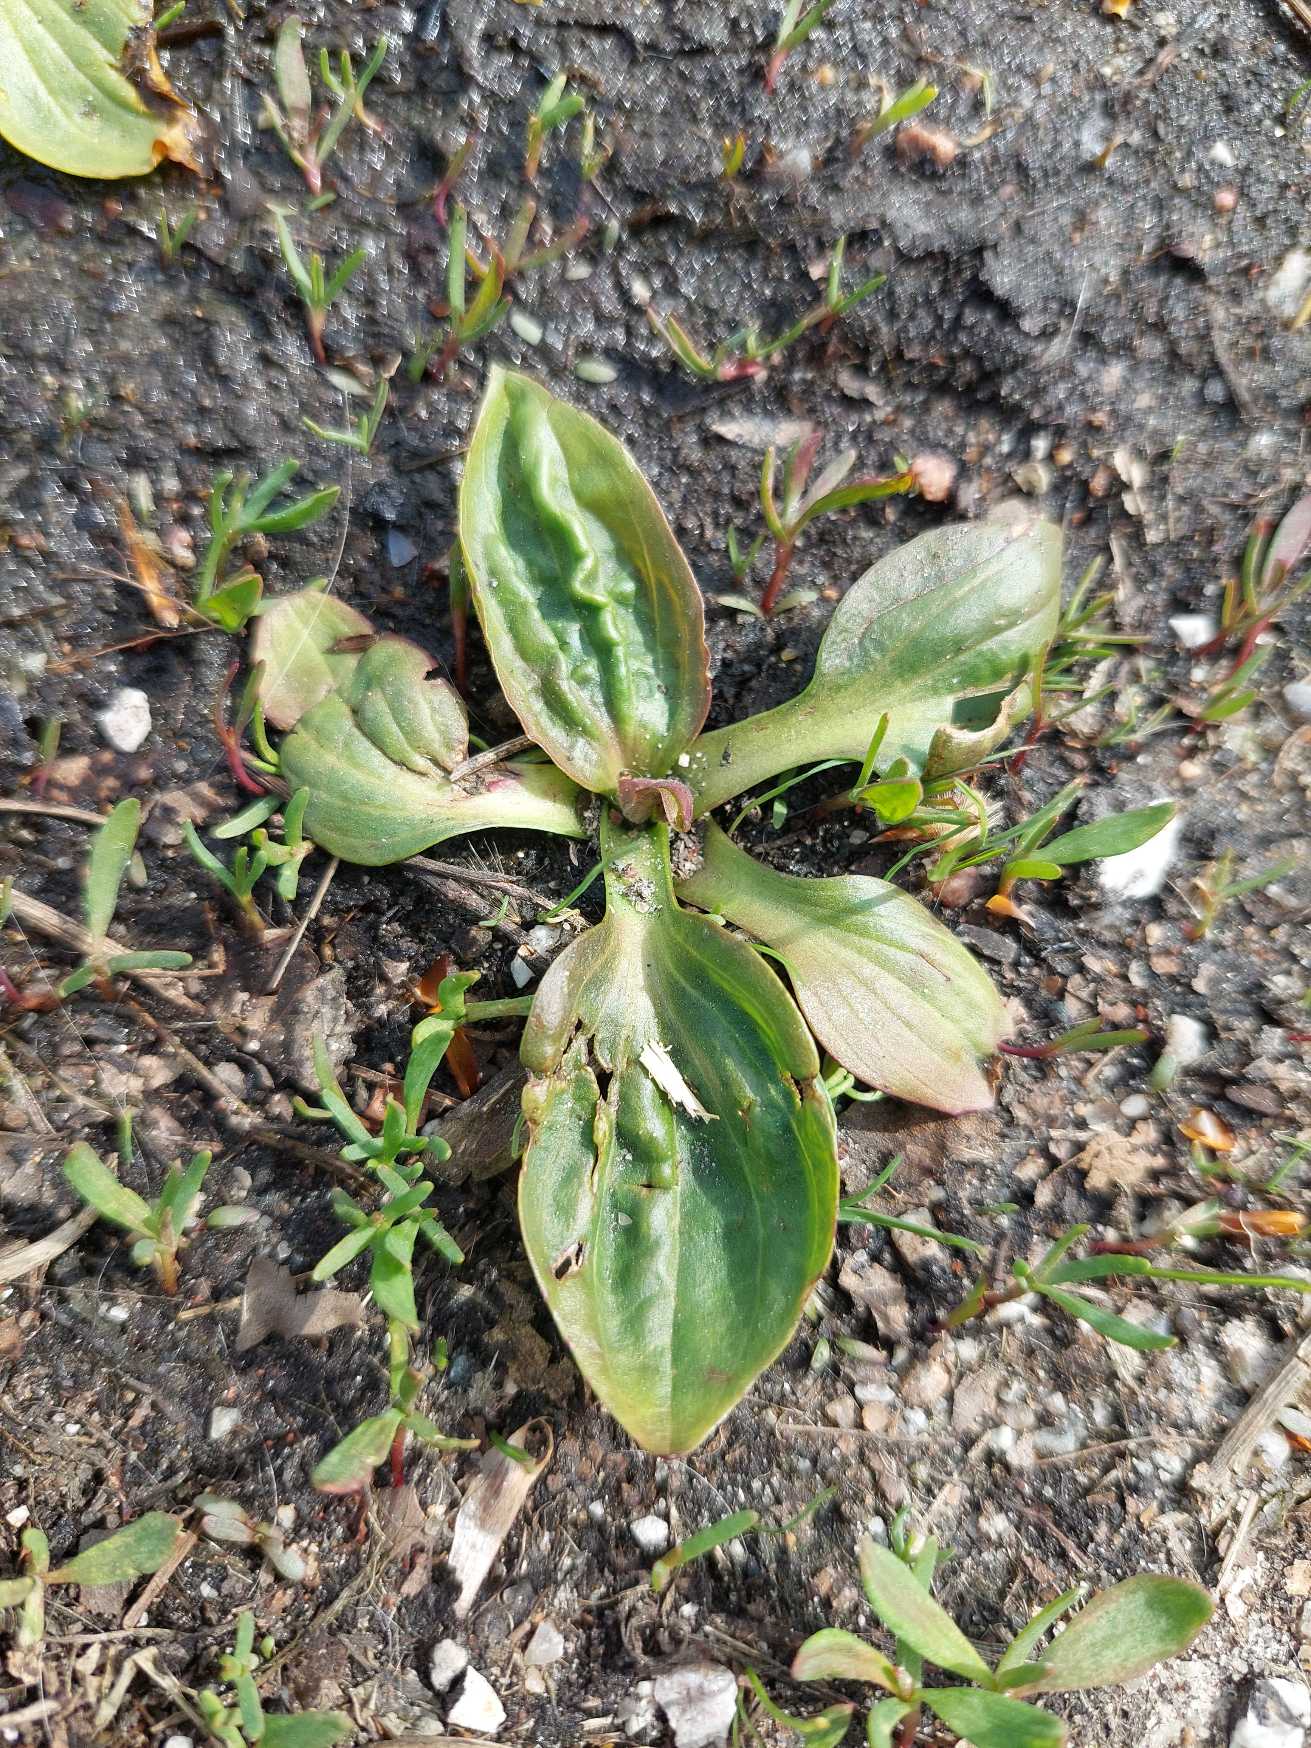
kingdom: Plantae
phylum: Tracheophyta
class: Magnoliopsida
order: Lamiales
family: Plantaginaceae
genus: Plantago
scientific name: Plantago major
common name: Glat vejbred
